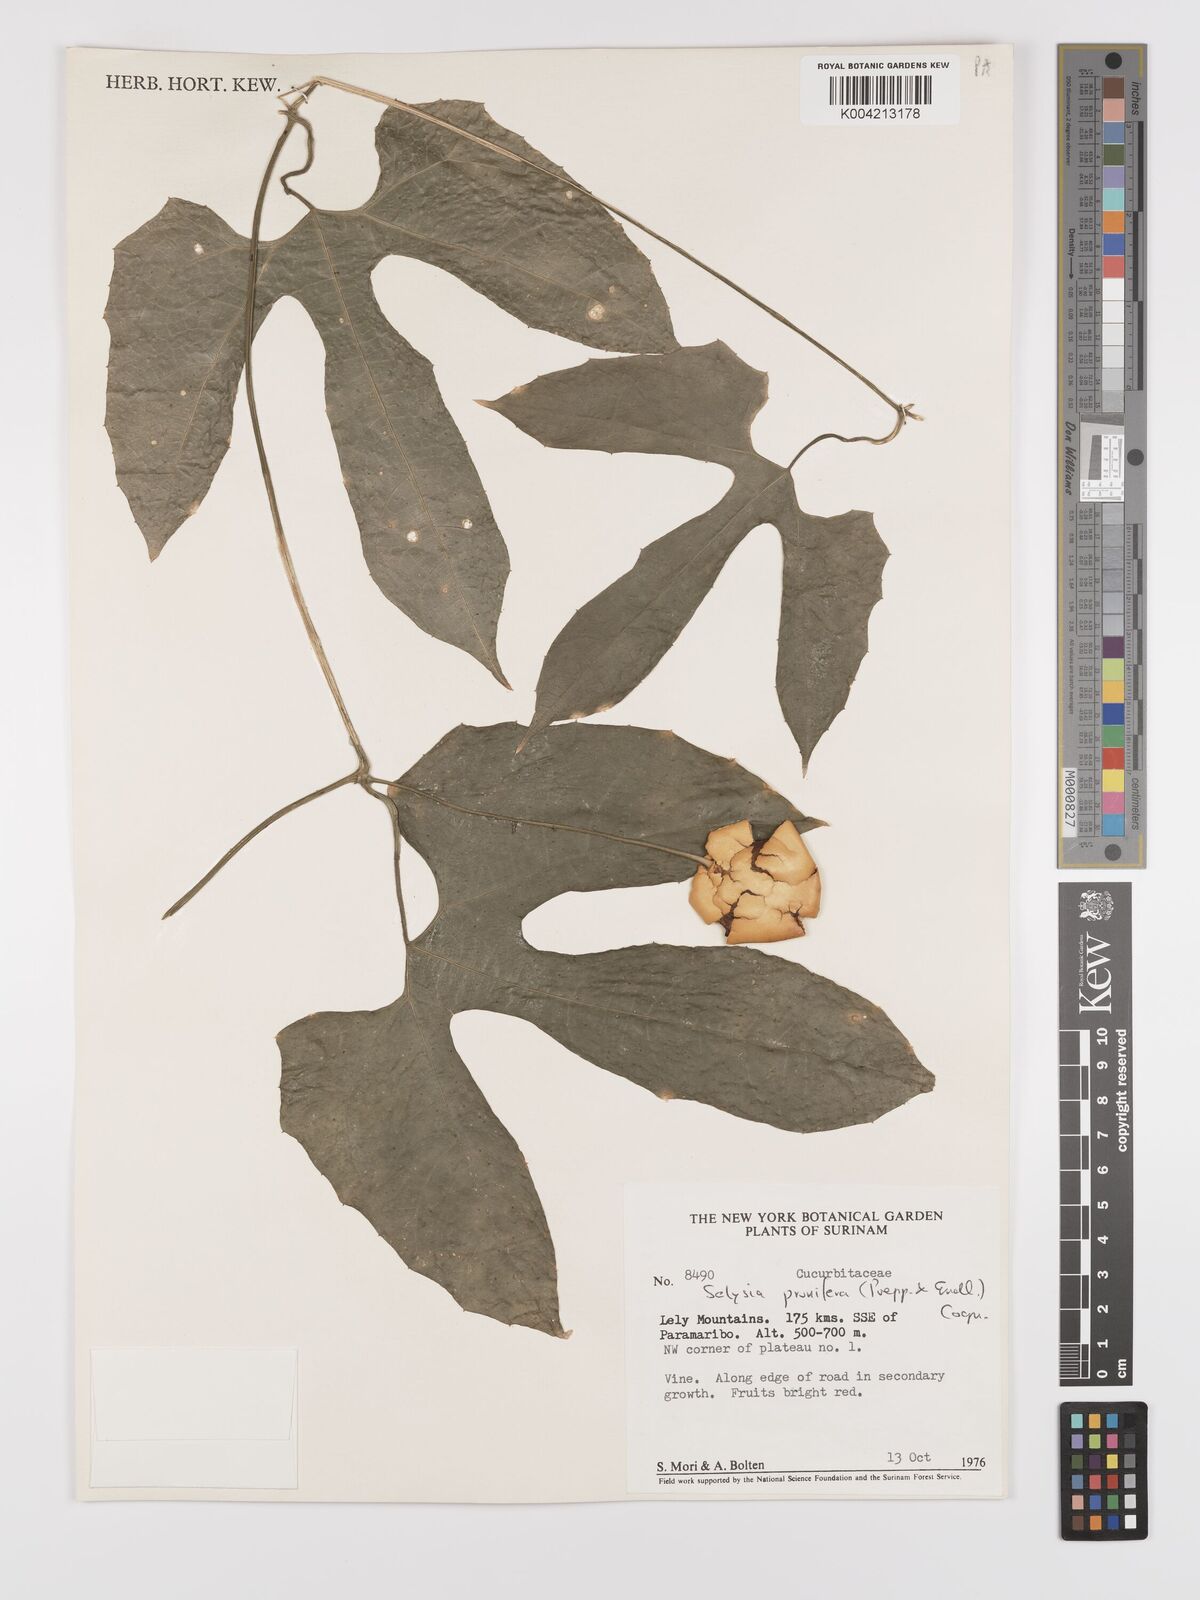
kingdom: Plantae
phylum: Tracheophyta
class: Magnoliopsida
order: Cucurbitales
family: Cucurbitaceae
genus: Cayaponia
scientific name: Cayaponia prunifera
